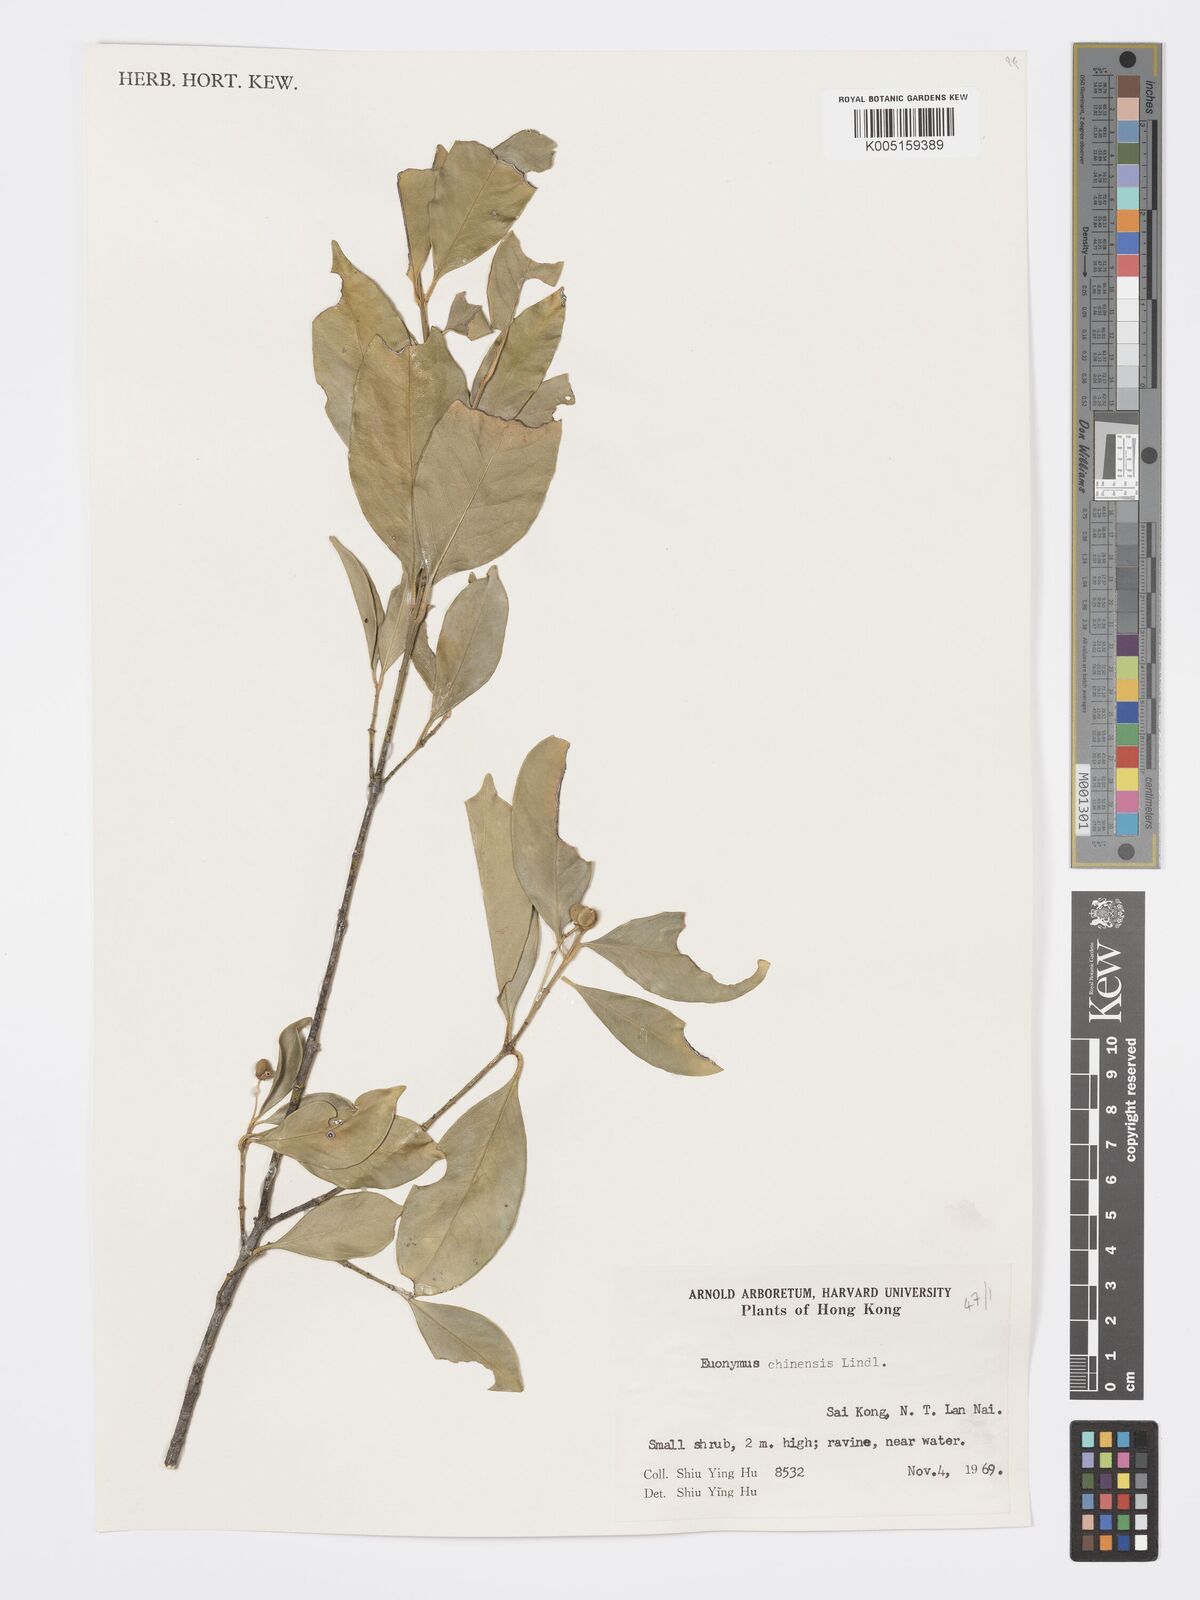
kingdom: Plantae
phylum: Tracheophyta
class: Magnoliopsida
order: Celastrales
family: Celastraceae
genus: Euonymus
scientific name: Euonymus nitidus
